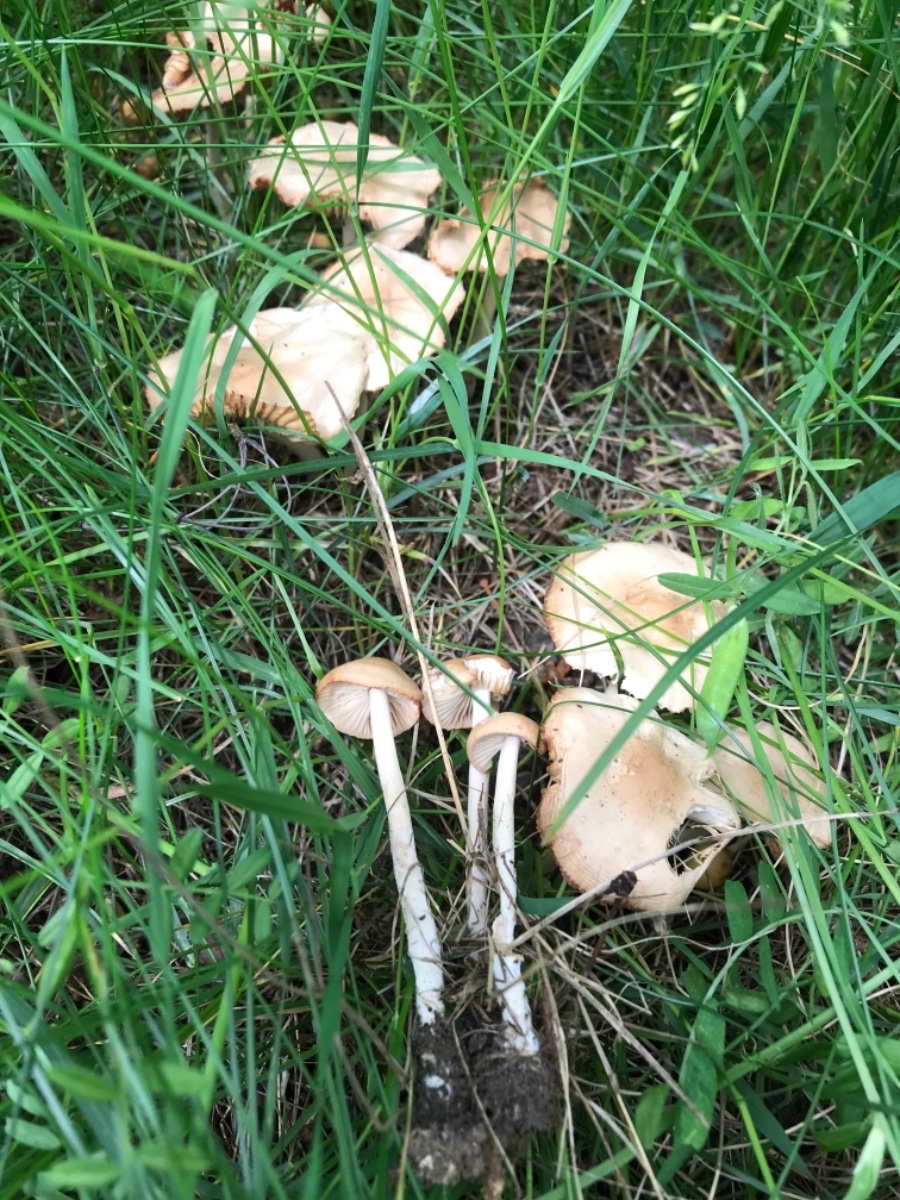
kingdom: Fungi
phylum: Basidiomycota
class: Agaricomycetes
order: Agaricales
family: Marasmiaceae
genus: Marasmius
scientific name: Marasmius oreades
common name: elledans-bruskhat
